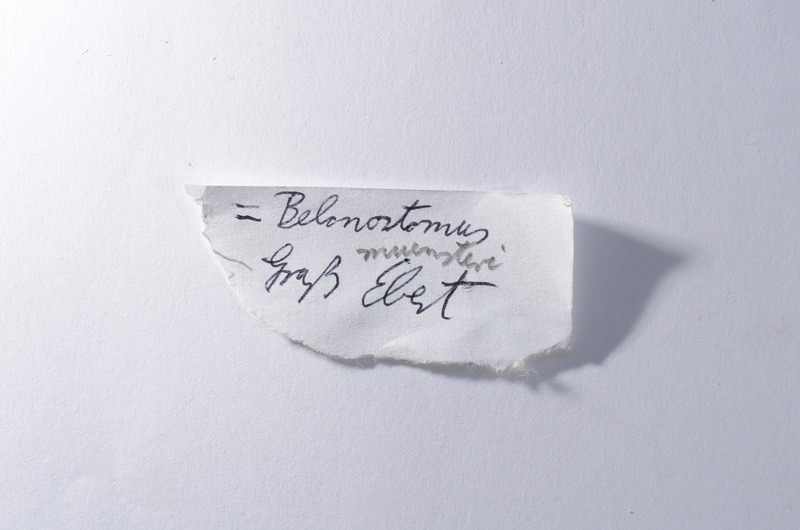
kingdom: Animalia
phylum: Chordata
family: Aspidorhynchidae
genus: Aspidorhynchus
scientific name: Aspidorhynchus
